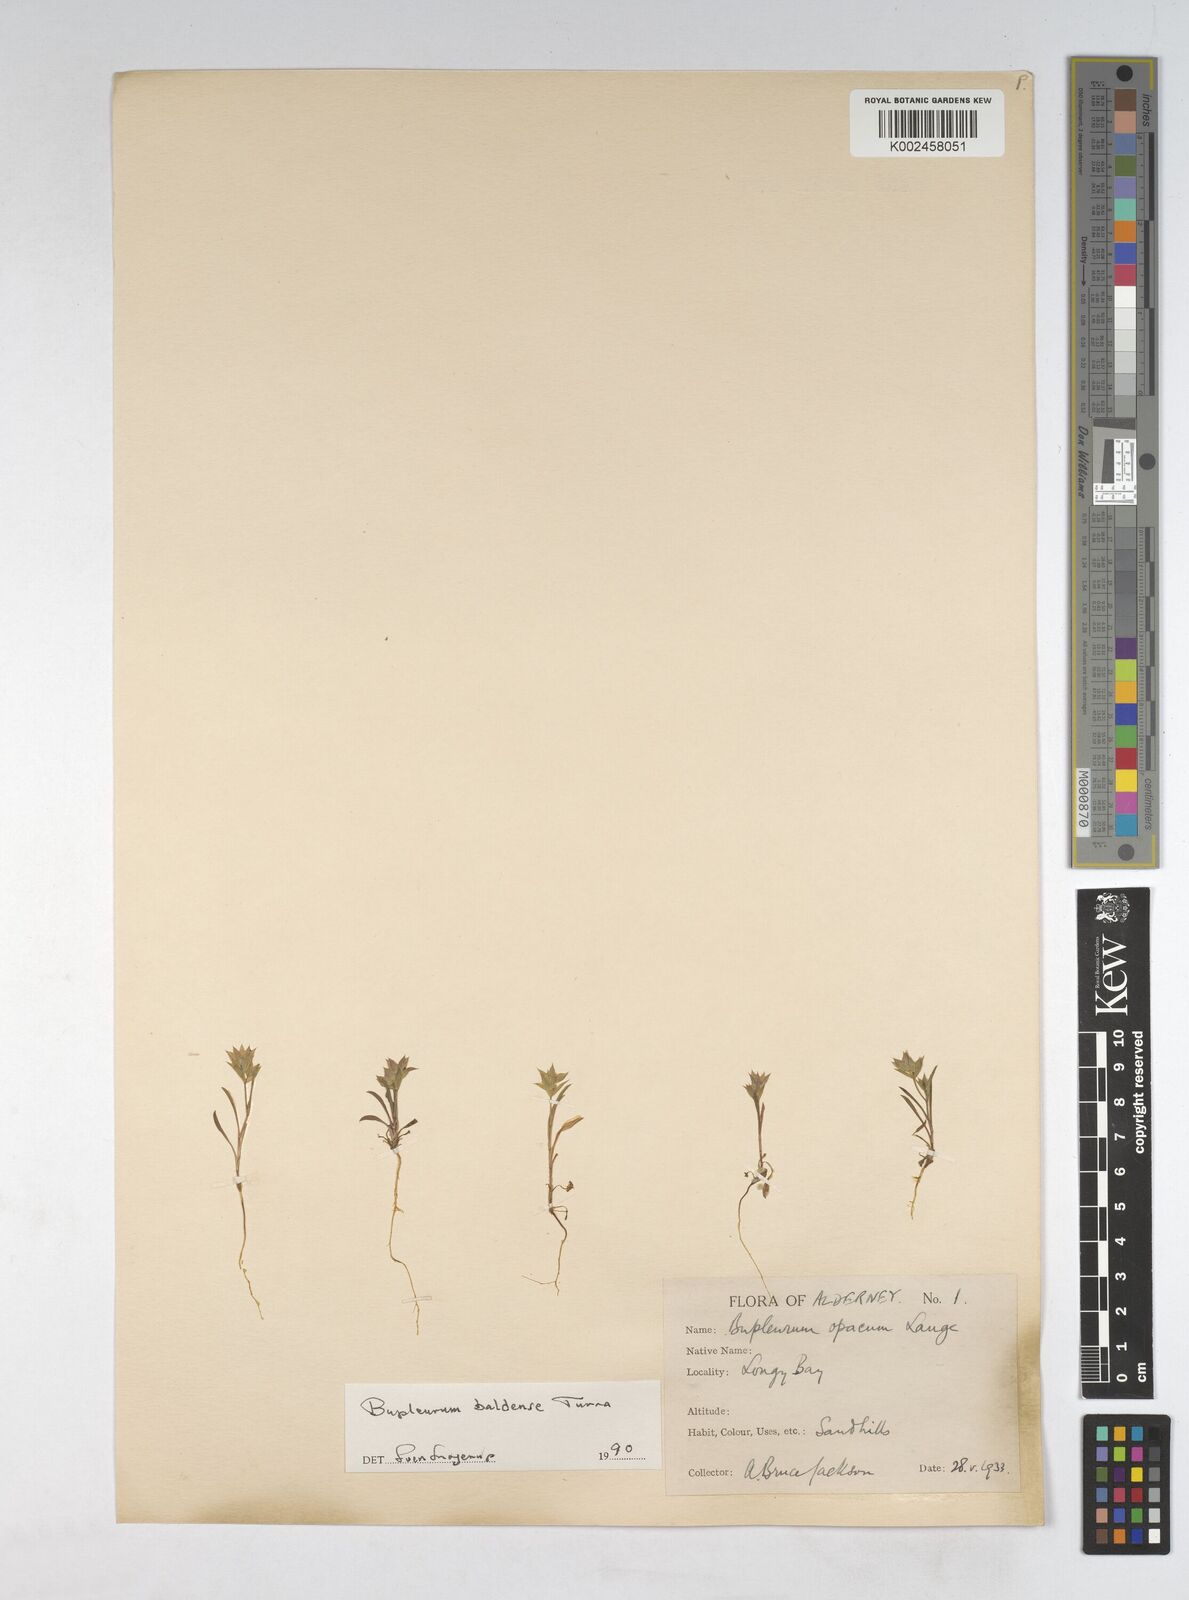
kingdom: Plantae
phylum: Tracheophyta
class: Magnoliopsida
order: Apiales
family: Apiaceae
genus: Bupleurum
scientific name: Bupleurum baldense
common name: Small hare's-ear
